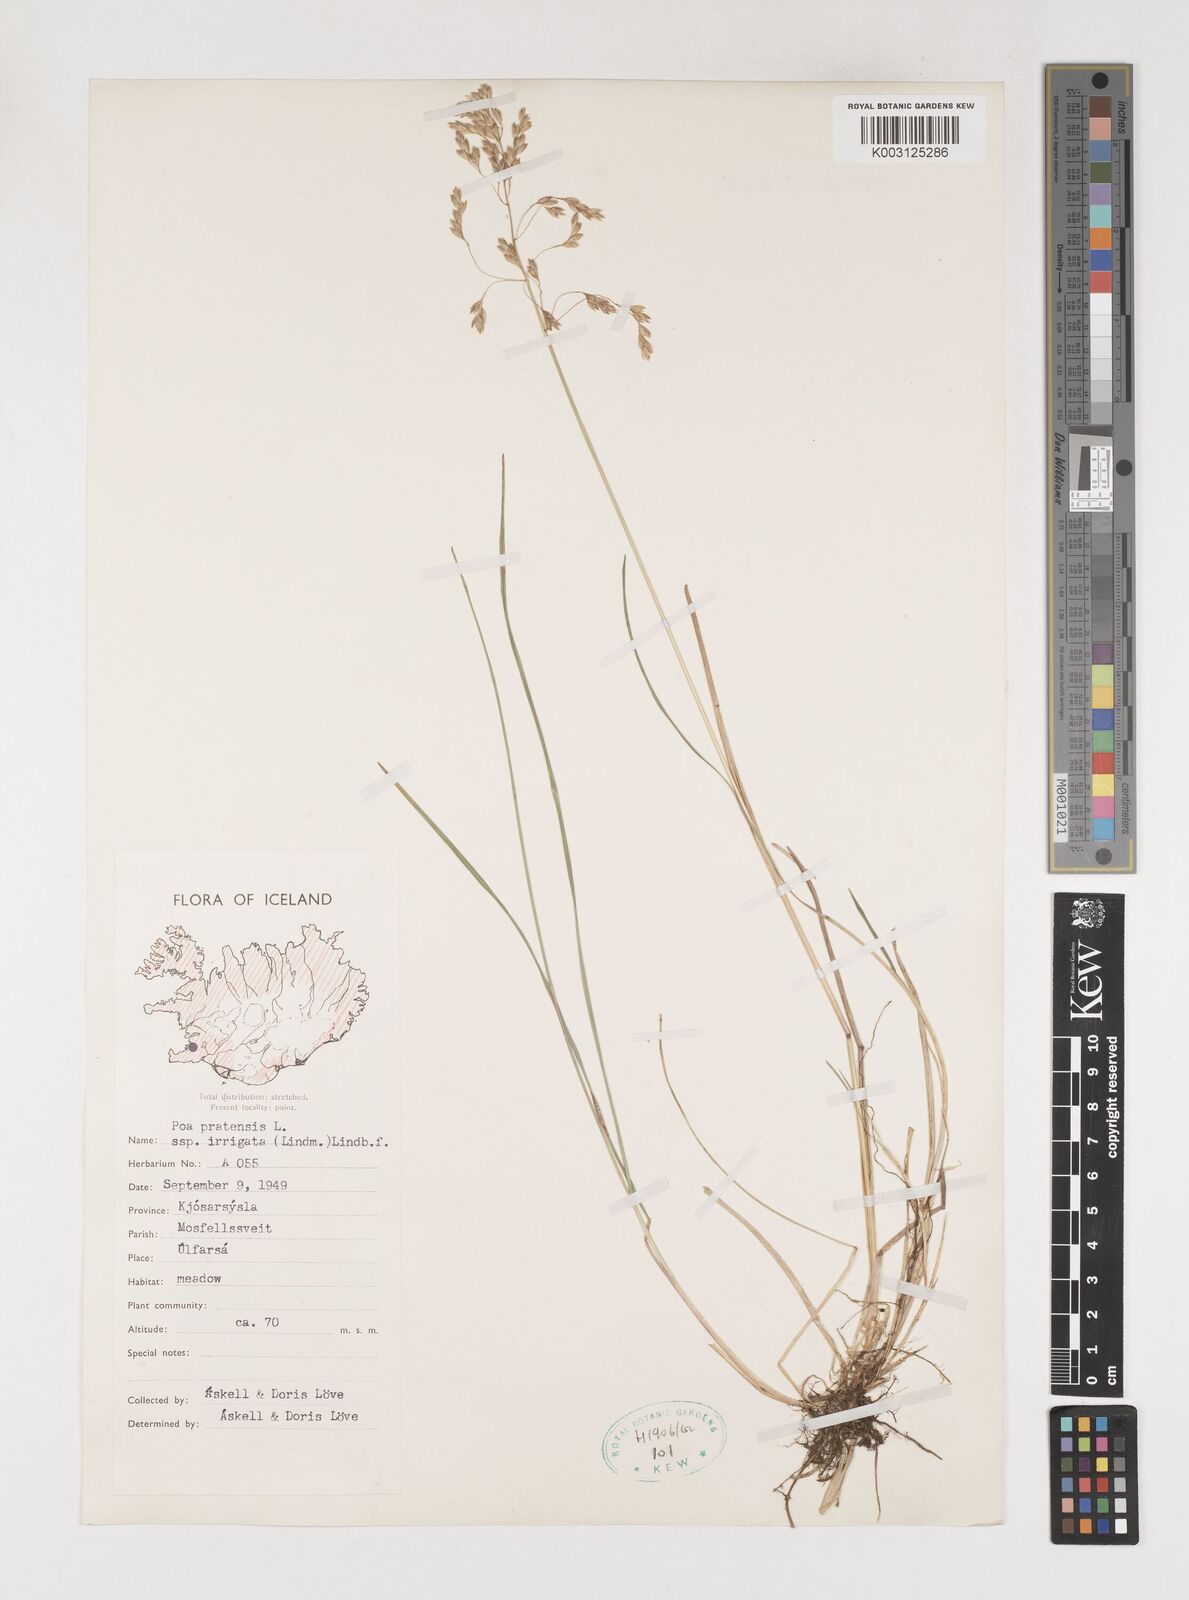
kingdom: Plantae
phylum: Tracheophyta
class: Liliopsida
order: Poales
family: Poaceae
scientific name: Poaceae
